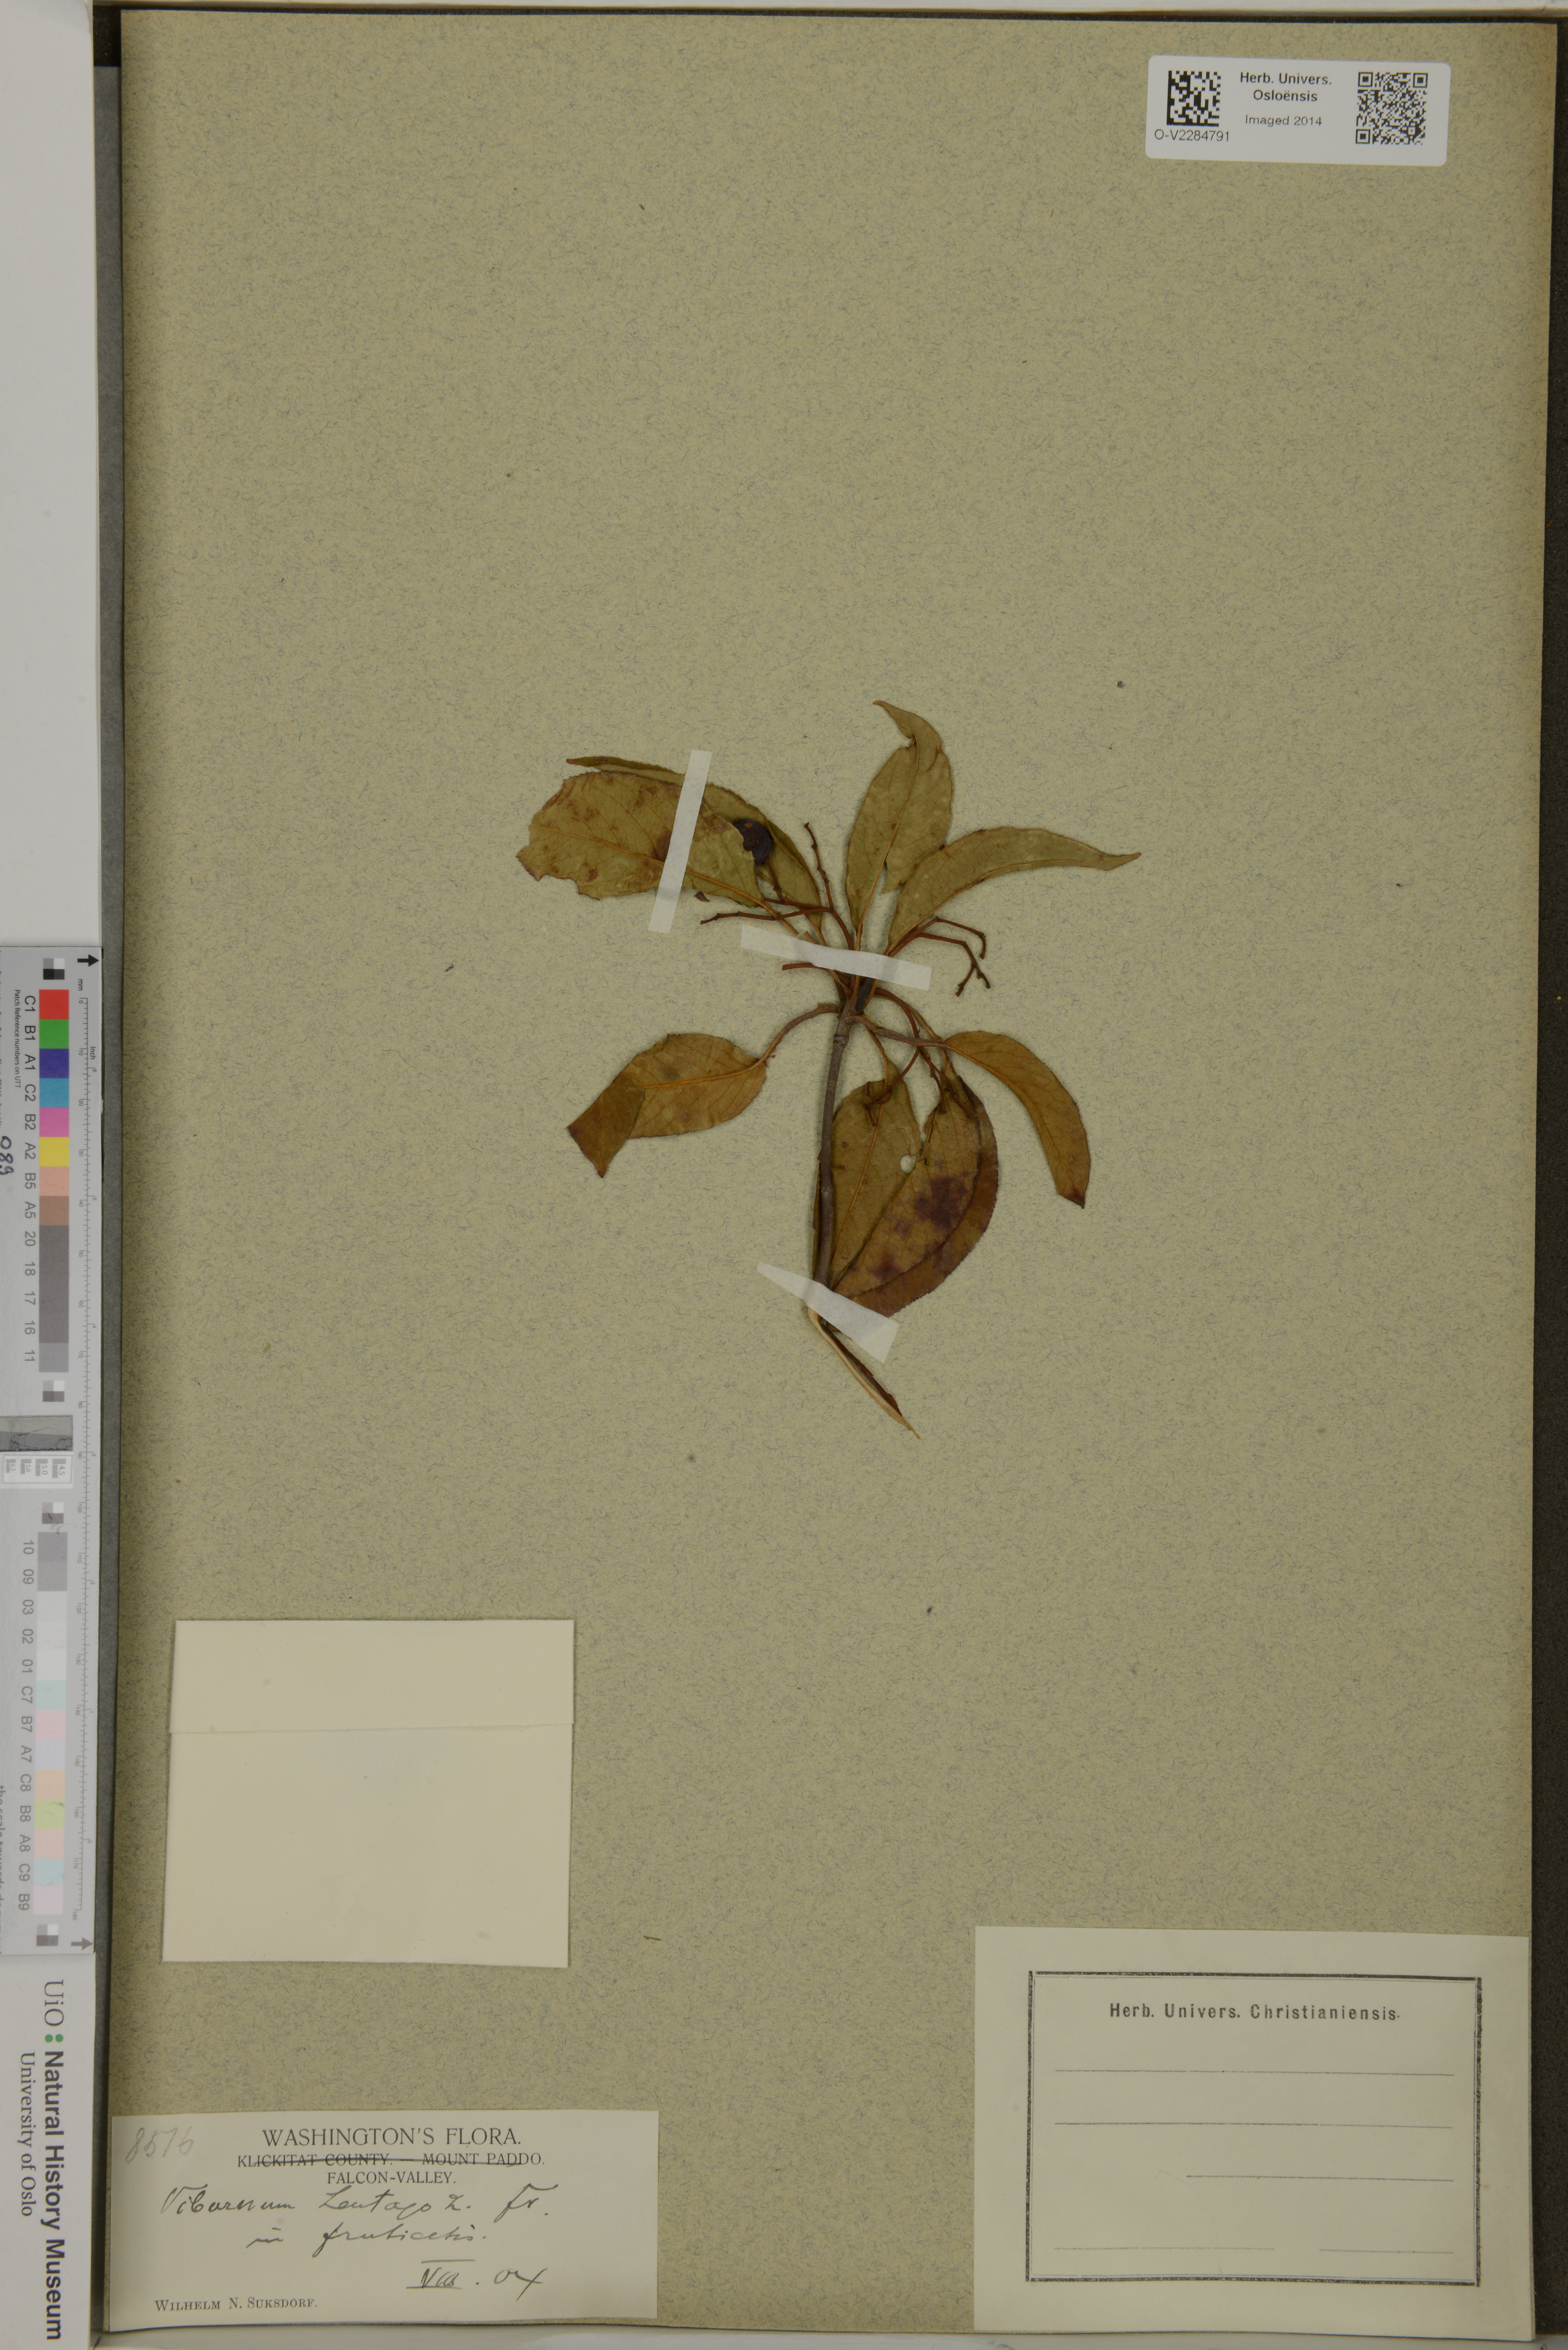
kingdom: Plantae
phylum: Tracheophyta
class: Magnoliopsida
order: Dipsacales
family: Viburnaceae
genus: Viburnum
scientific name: Viburnum lentago
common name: Black haw
